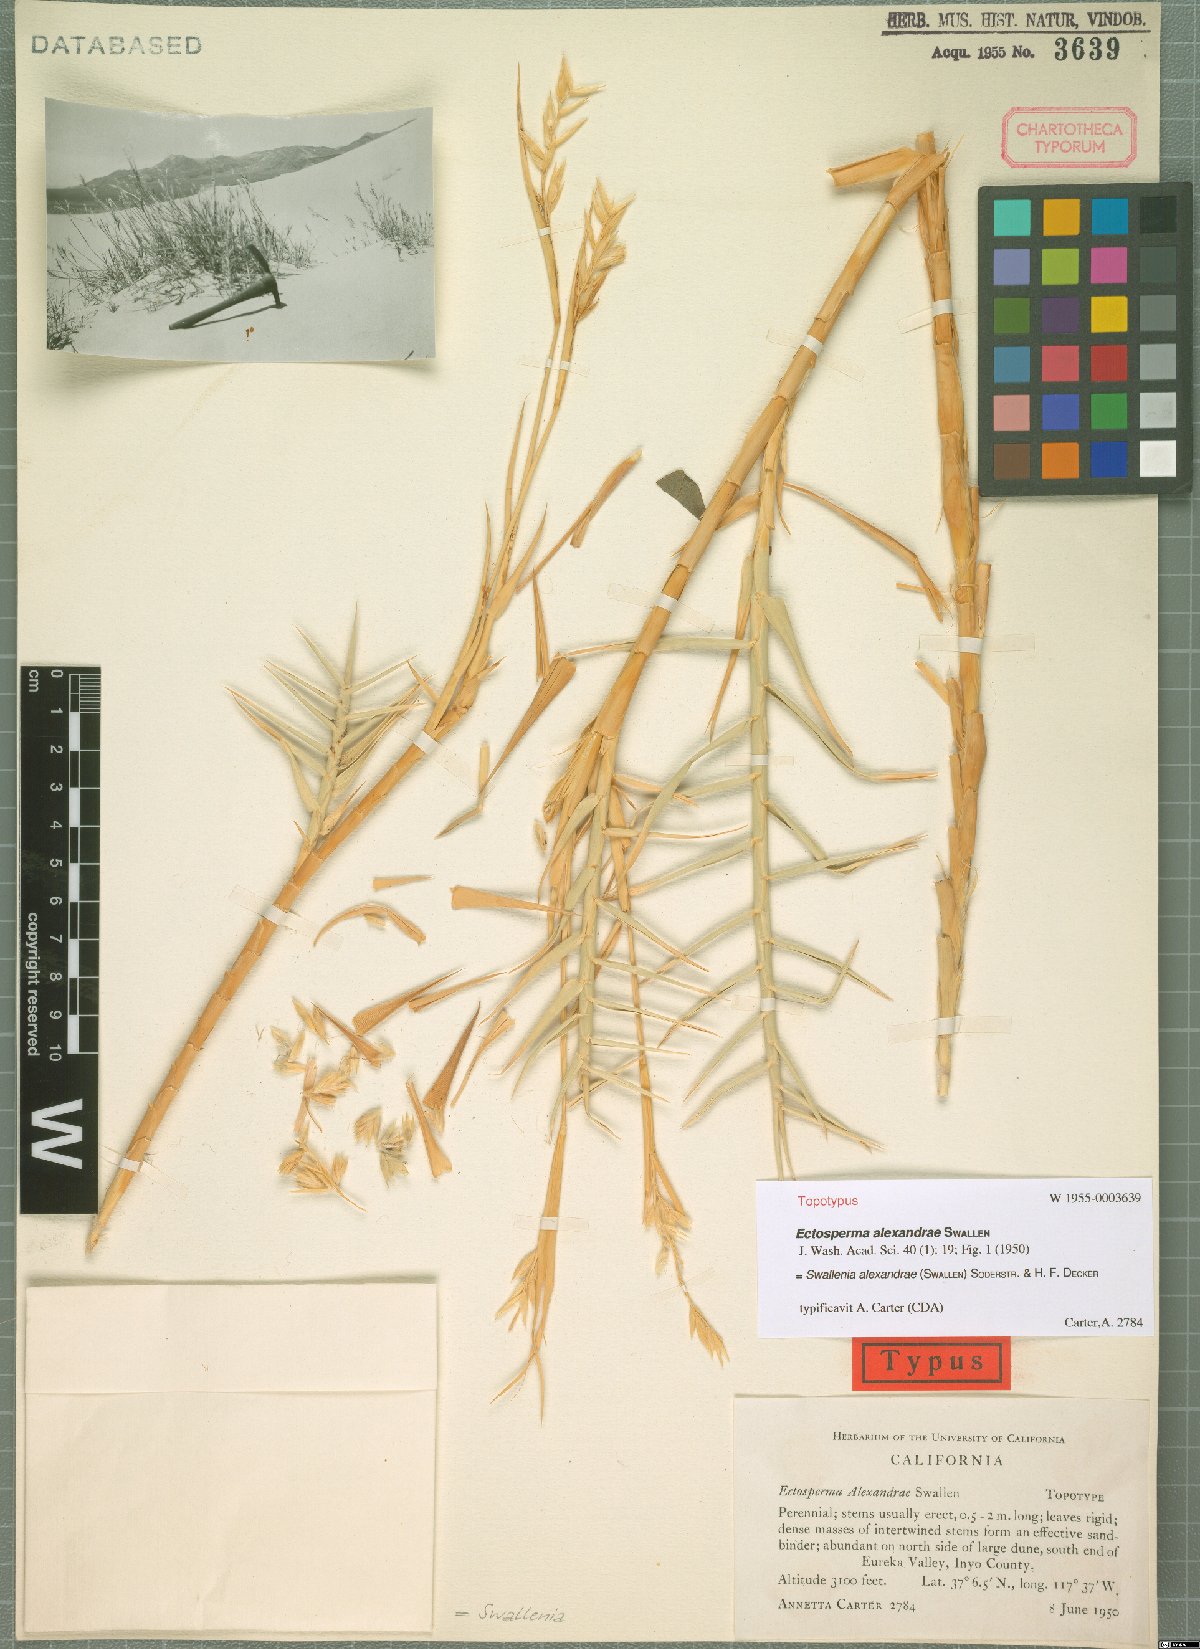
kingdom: Plantae
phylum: Tracheophyta
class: Liliopsida
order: Poales
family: Poaceae
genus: Swallenia
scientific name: Swallenia alexandrae
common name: Eureka dune grass
